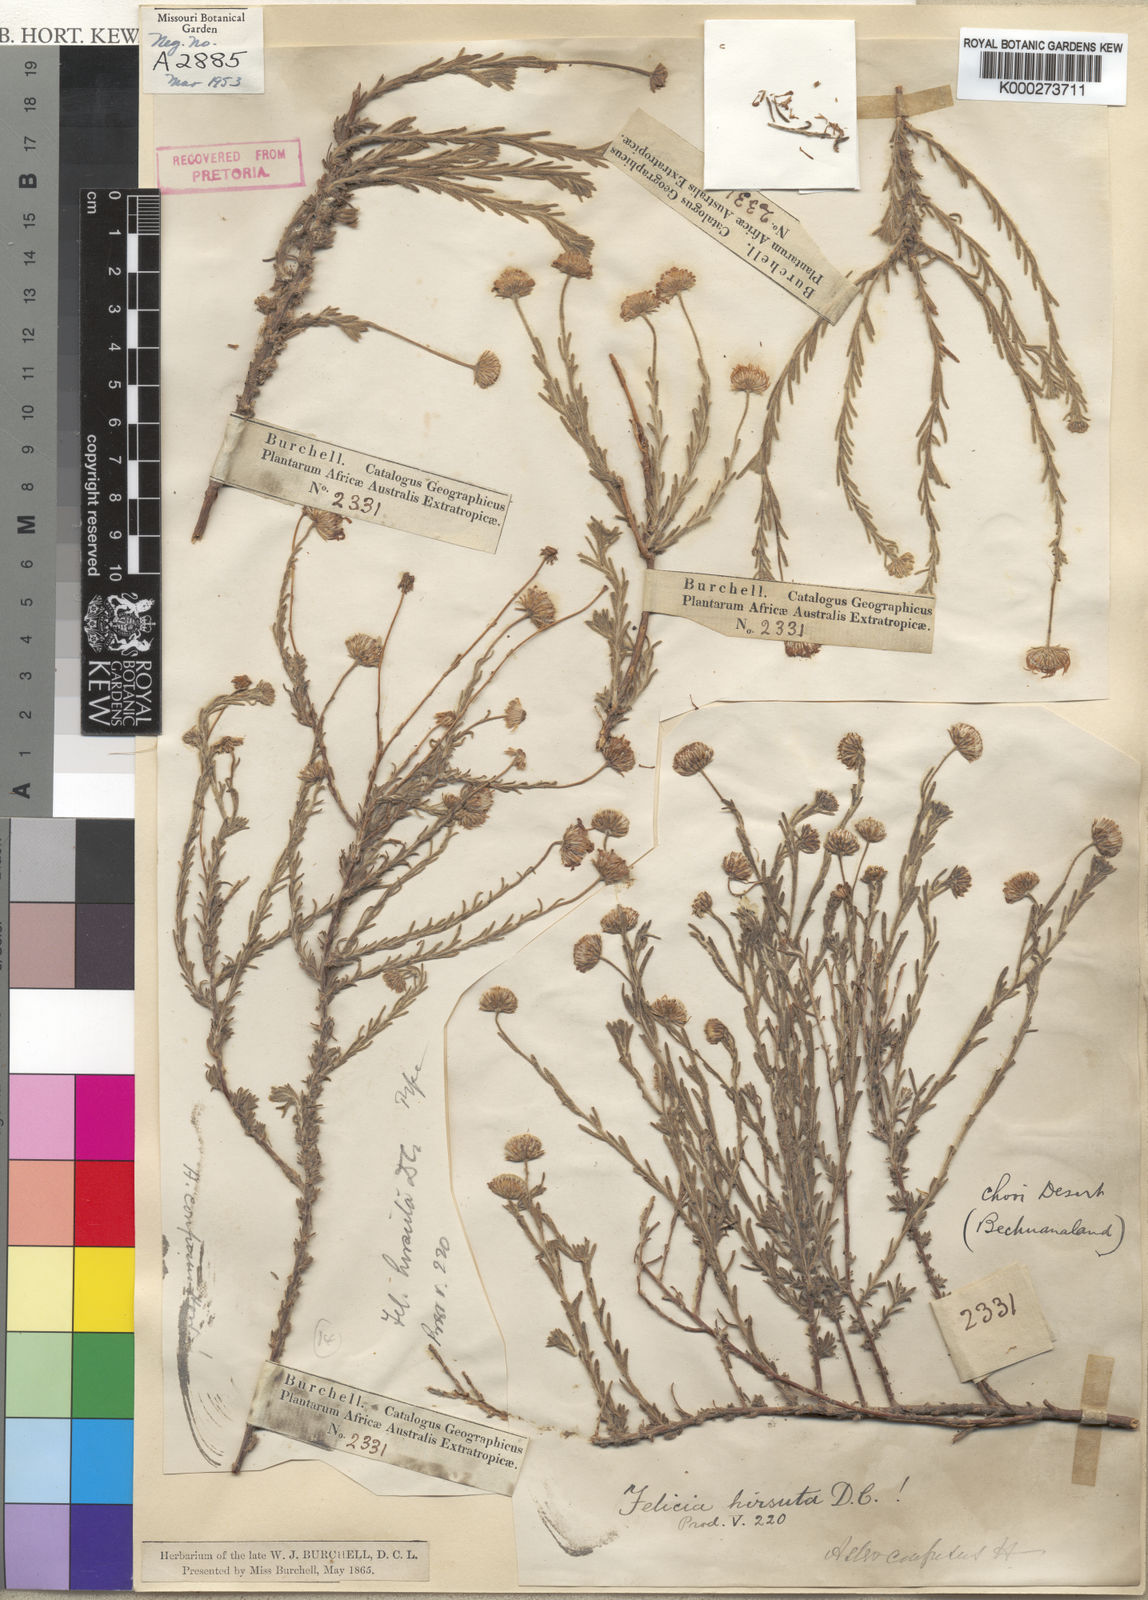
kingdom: Plantae
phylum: Tracheophyta
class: Magnoliopsida
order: Asterales
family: Asteraceae
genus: Felicia
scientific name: Felicia hirsuta
